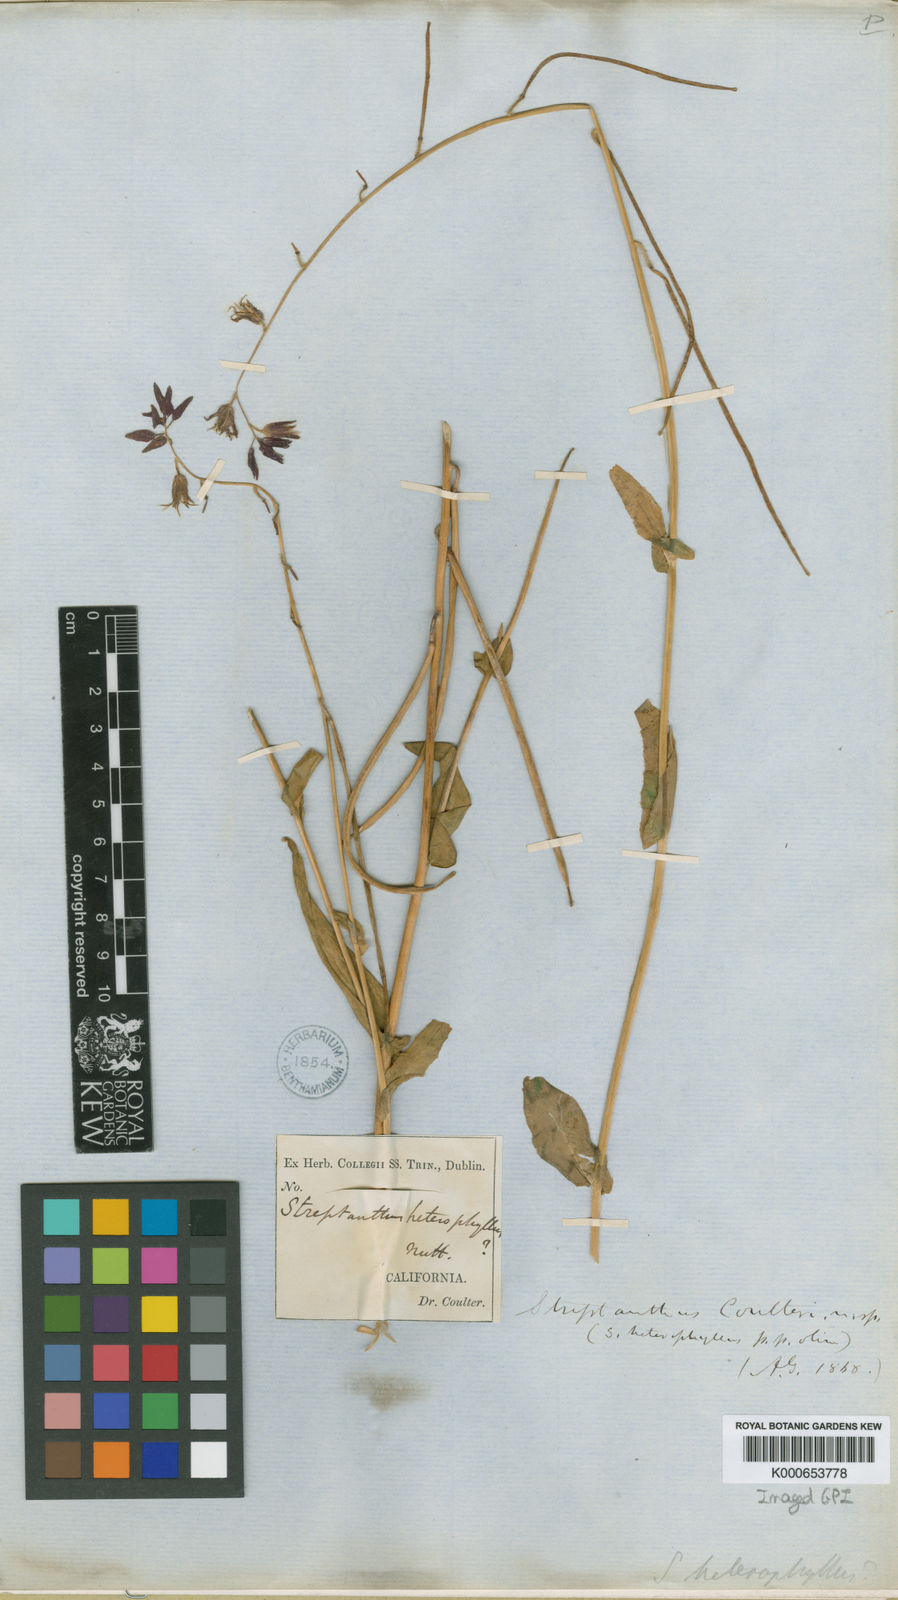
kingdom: Plantae
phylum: Tracheophyta
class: Magnoliopsida
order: Brassicales
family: Brassicaceae
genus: Streptanthus
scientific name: Streptanthus heterophyllus
